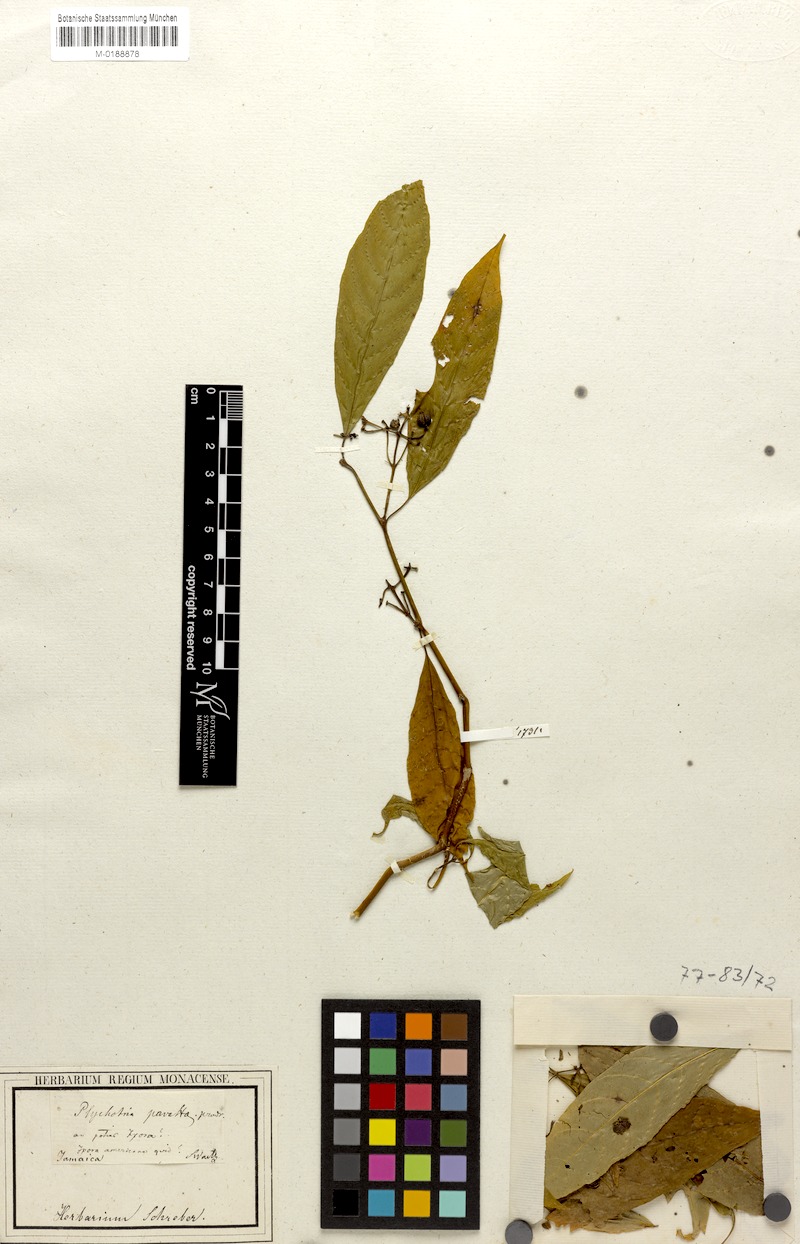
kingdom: Plantae
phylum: Tracheophyta
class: Magnoliopsida
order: Gentianales
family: Rubiaceae
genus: Palicourea
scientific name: Palicourea domingensis
